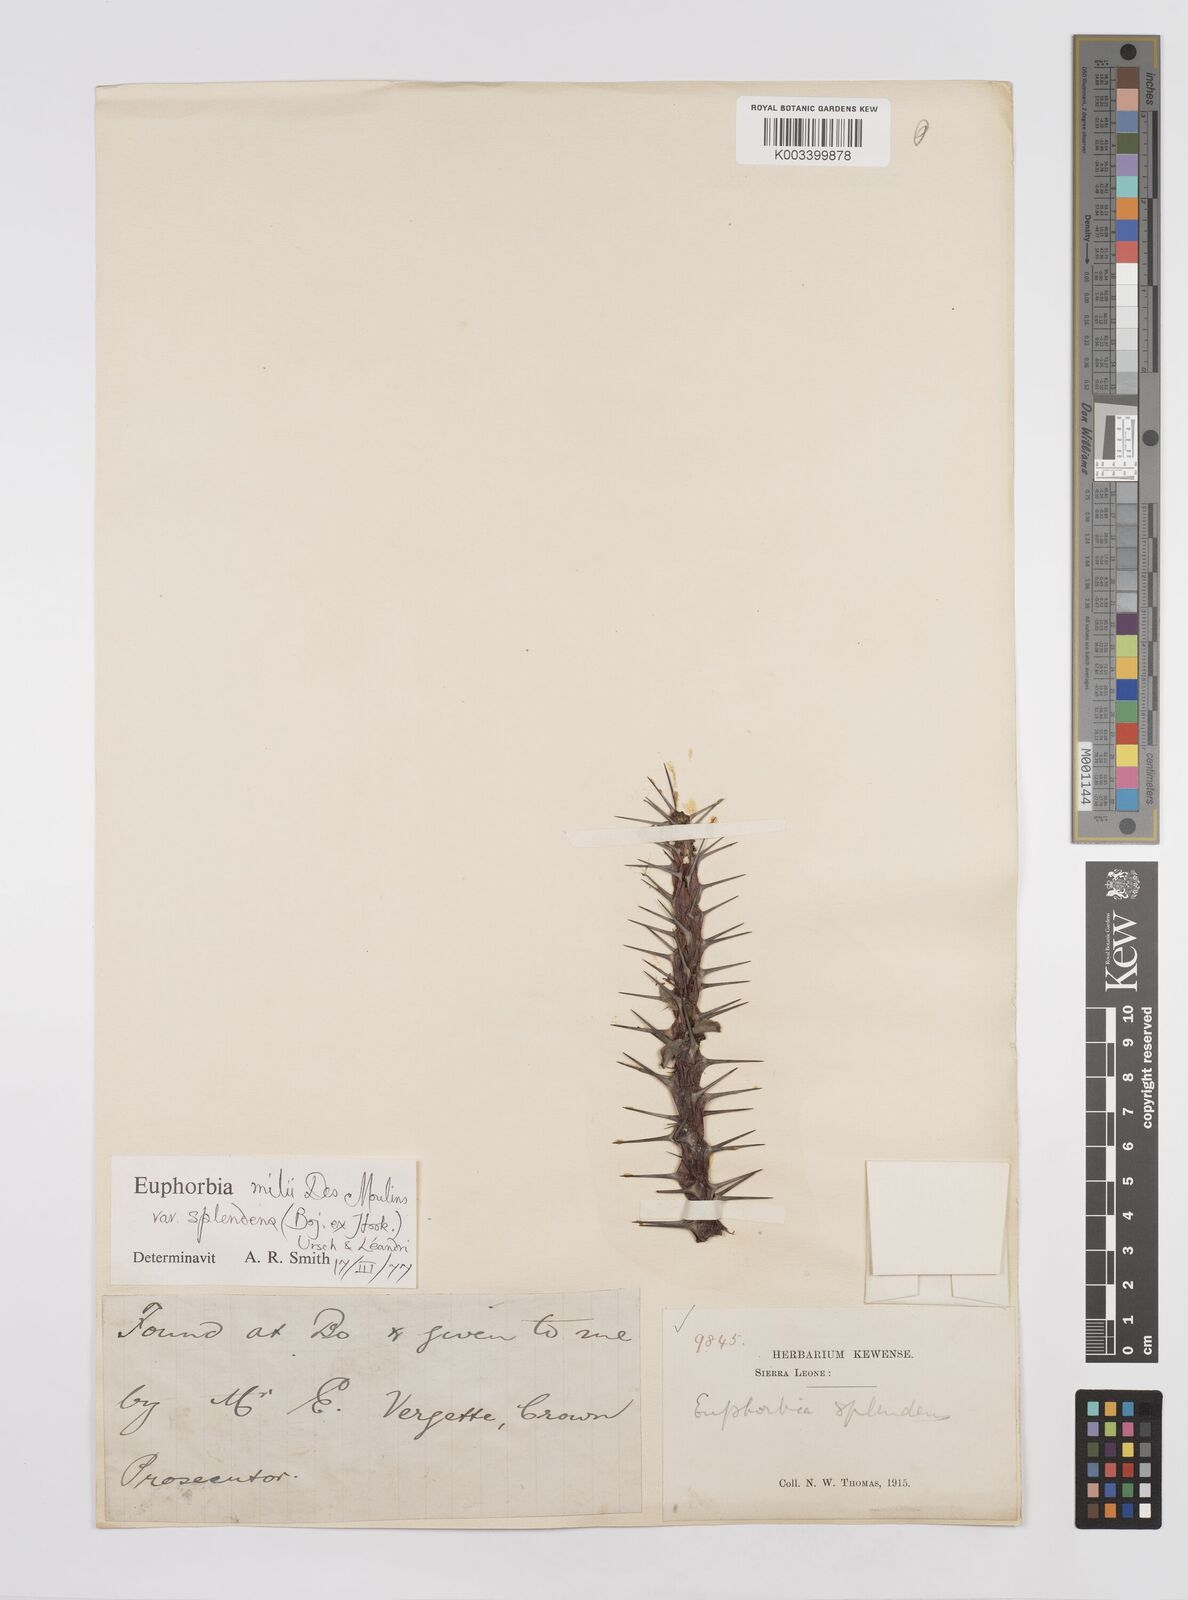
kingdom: Plantae
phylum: Tracheophyta
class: Magnoliopsida
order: Malpighiales
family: Euphorbiaceae
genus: Euphorbia
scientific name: Euphorbia splendens
